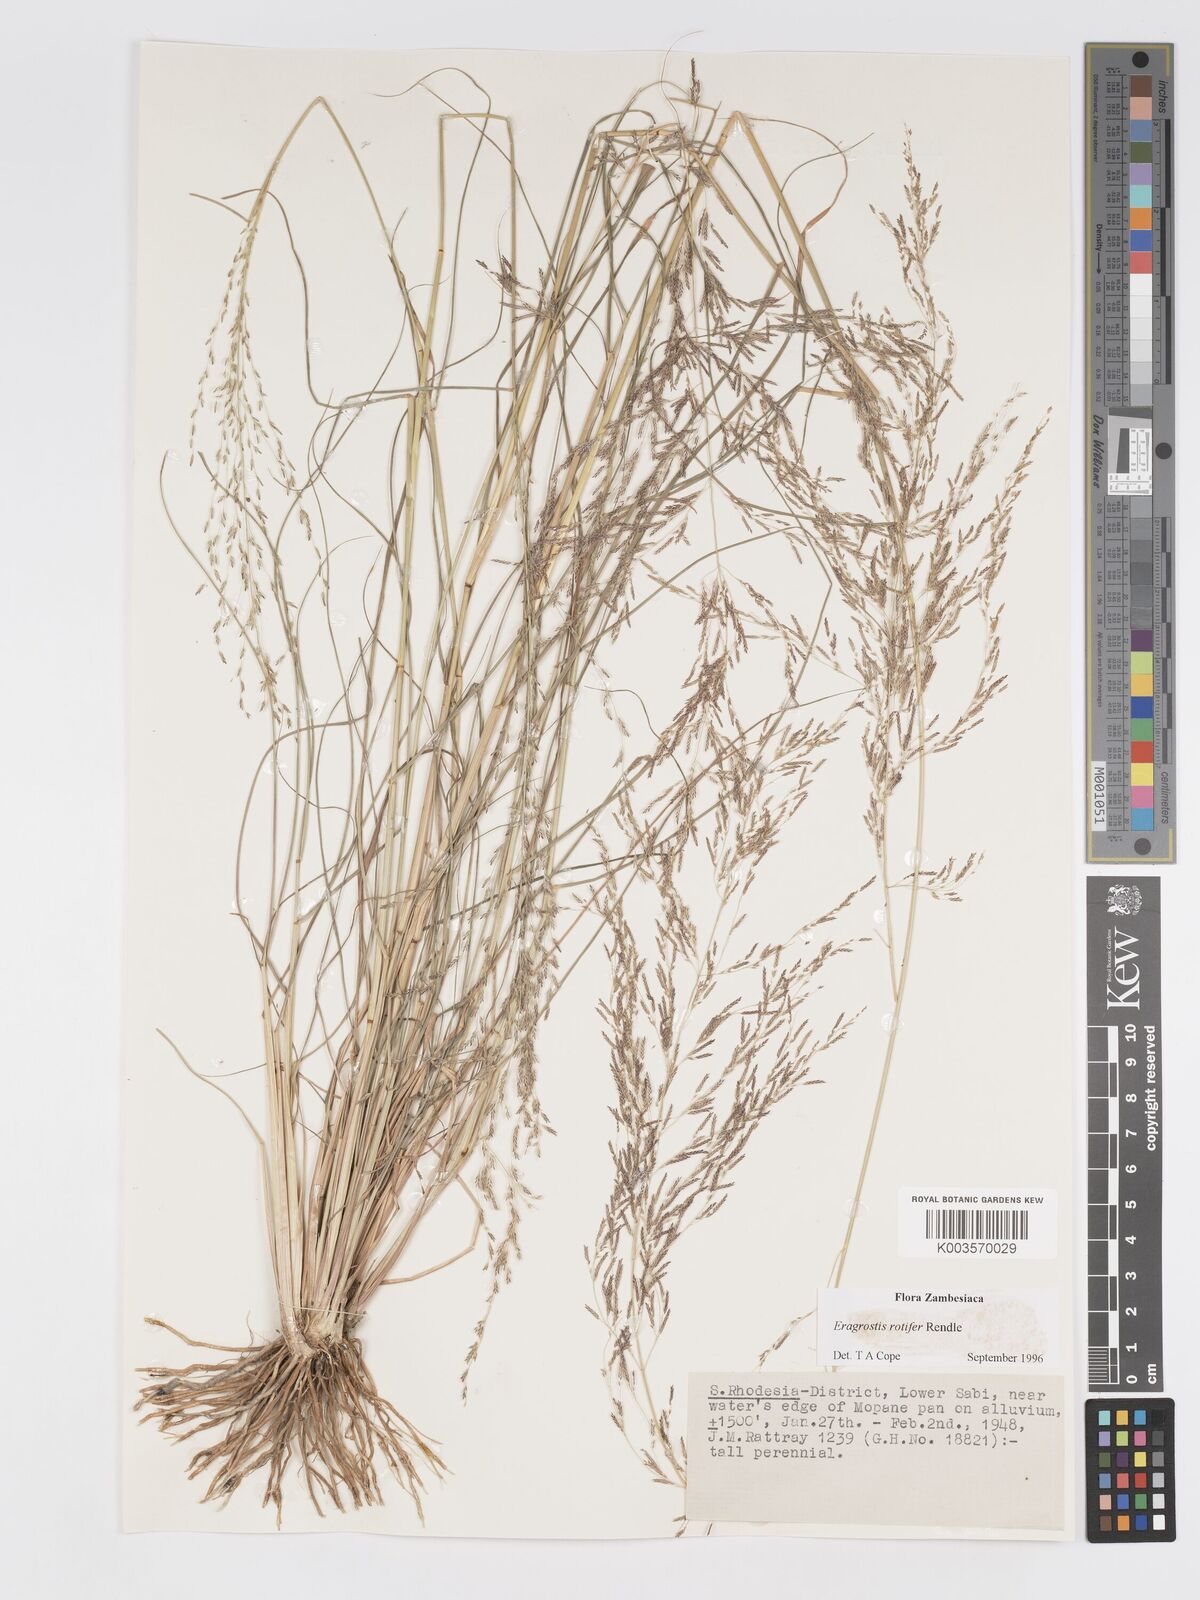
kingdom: Plantae
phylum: Tracheophyta
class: Liliopsida
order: Poales
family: Poaceae
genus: Eragrostis
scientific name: Eragrostis rotifer
